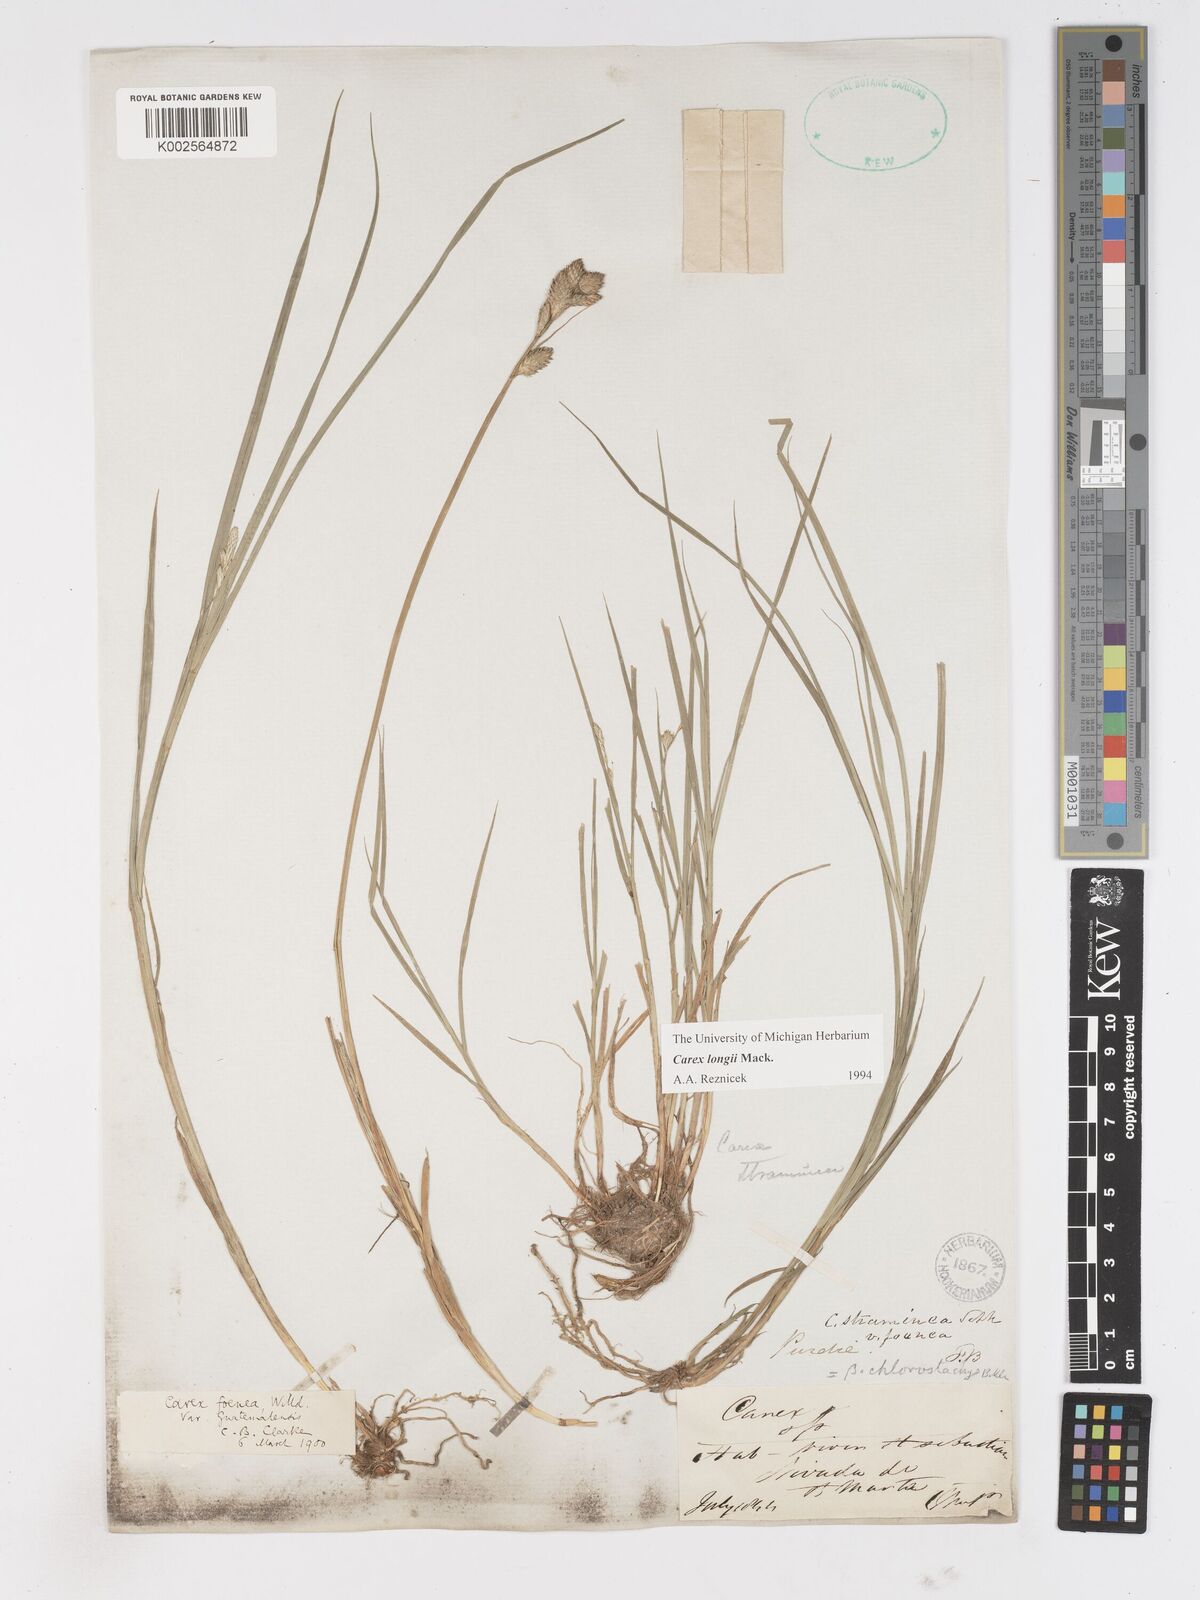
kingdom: Plantae
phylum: Tracheophyta
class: Liliopsida
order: Poales
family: Cyperaceae
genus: Carex
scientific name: Carex longii
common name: Long's sedge
